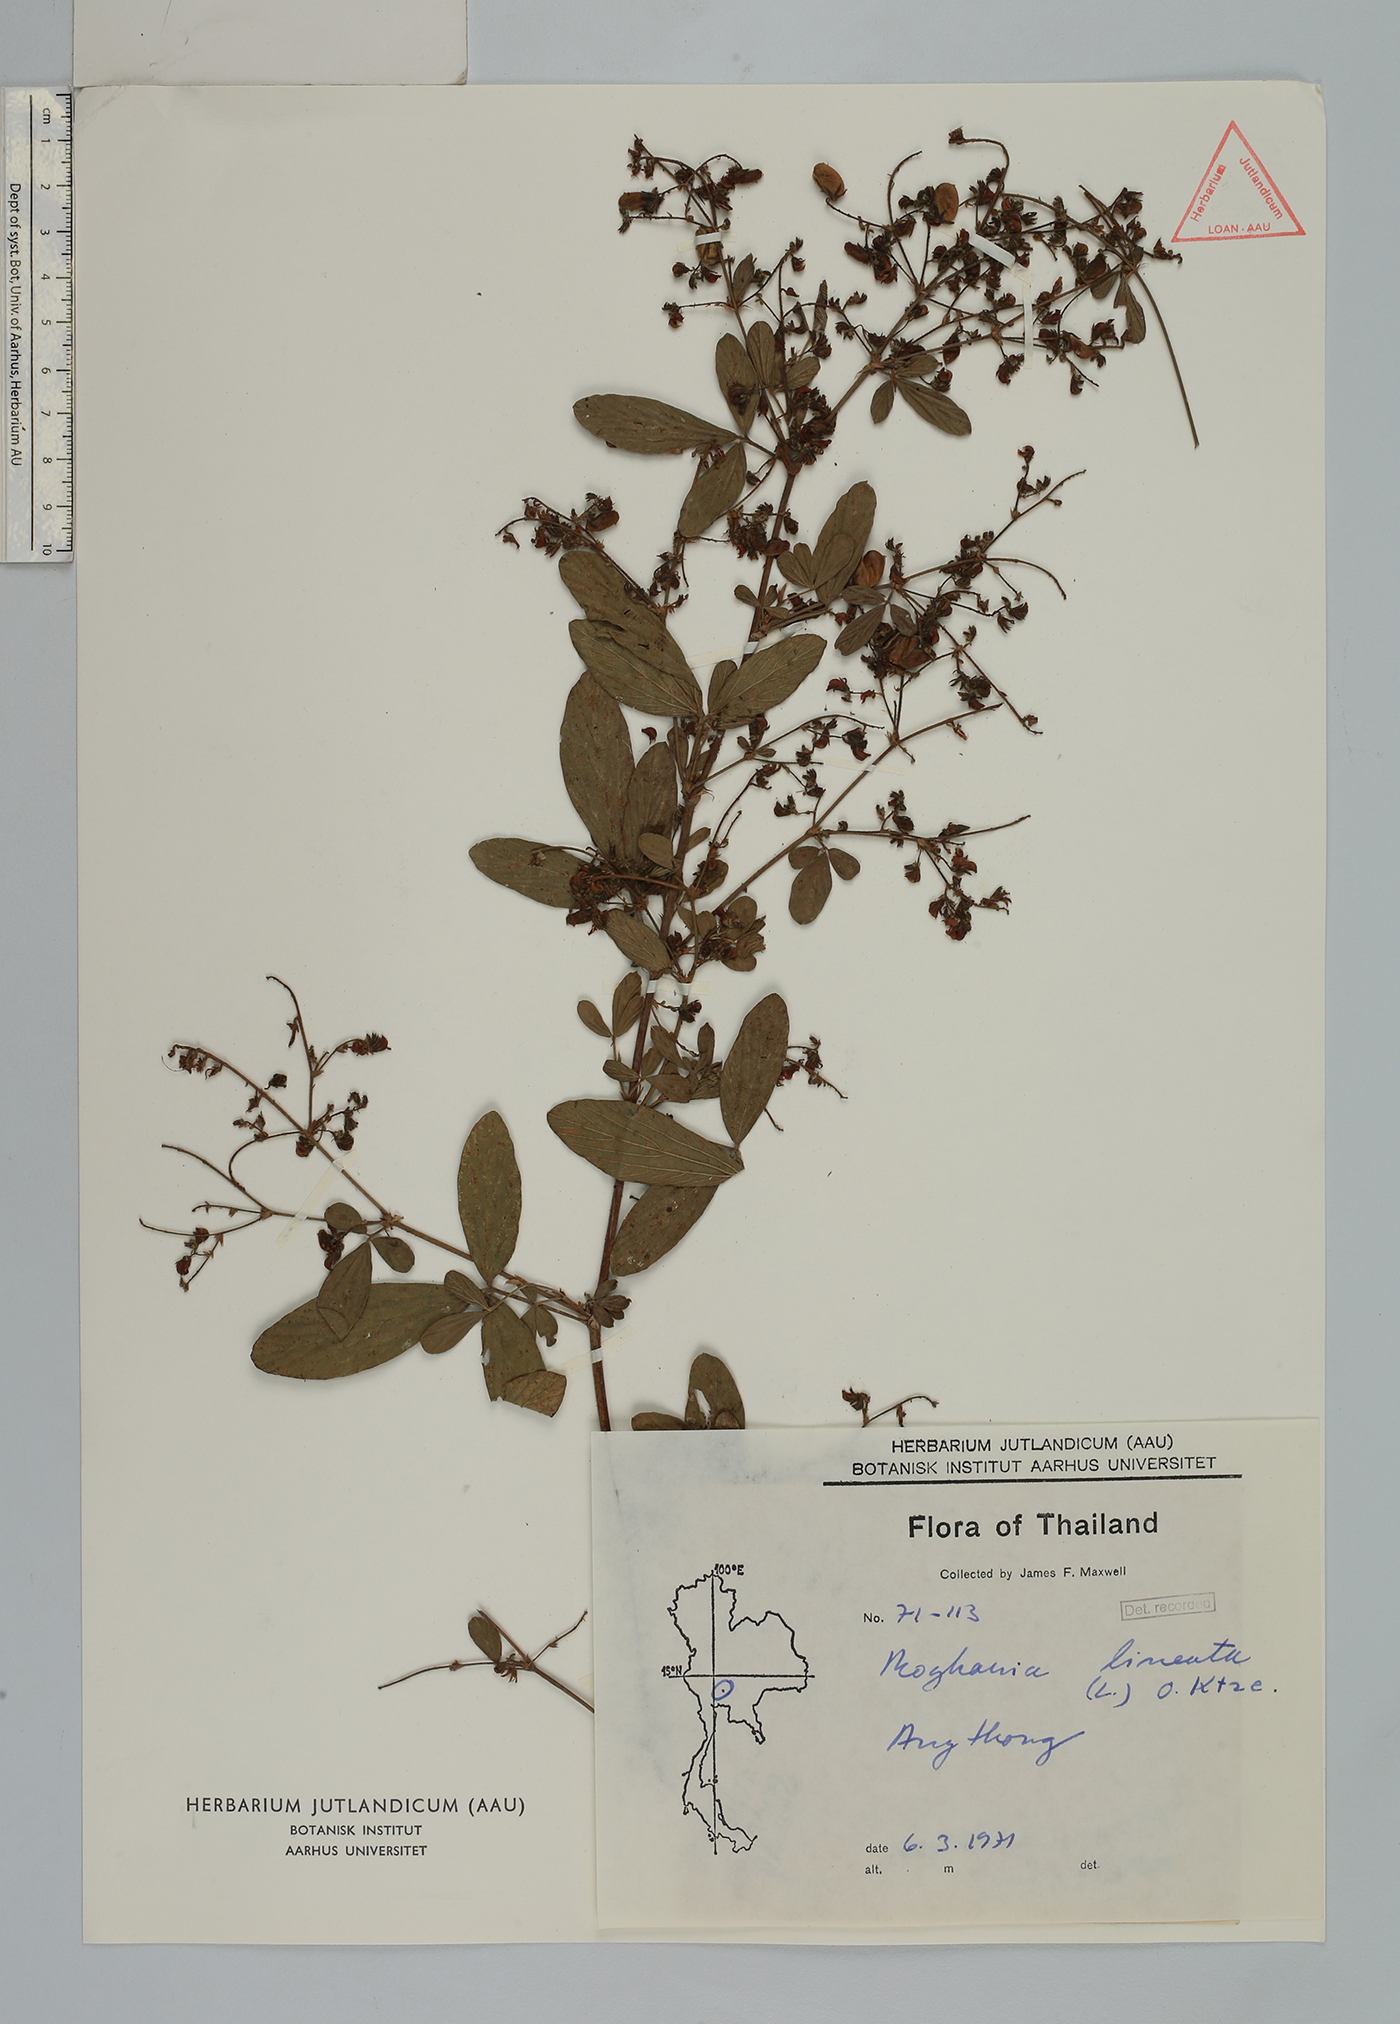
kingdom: Plantae
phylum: Tracheophyta
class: Magnoliopsida
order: Fabales
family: Fabaceae
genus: Flemingia
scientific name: Flemingia lineata
